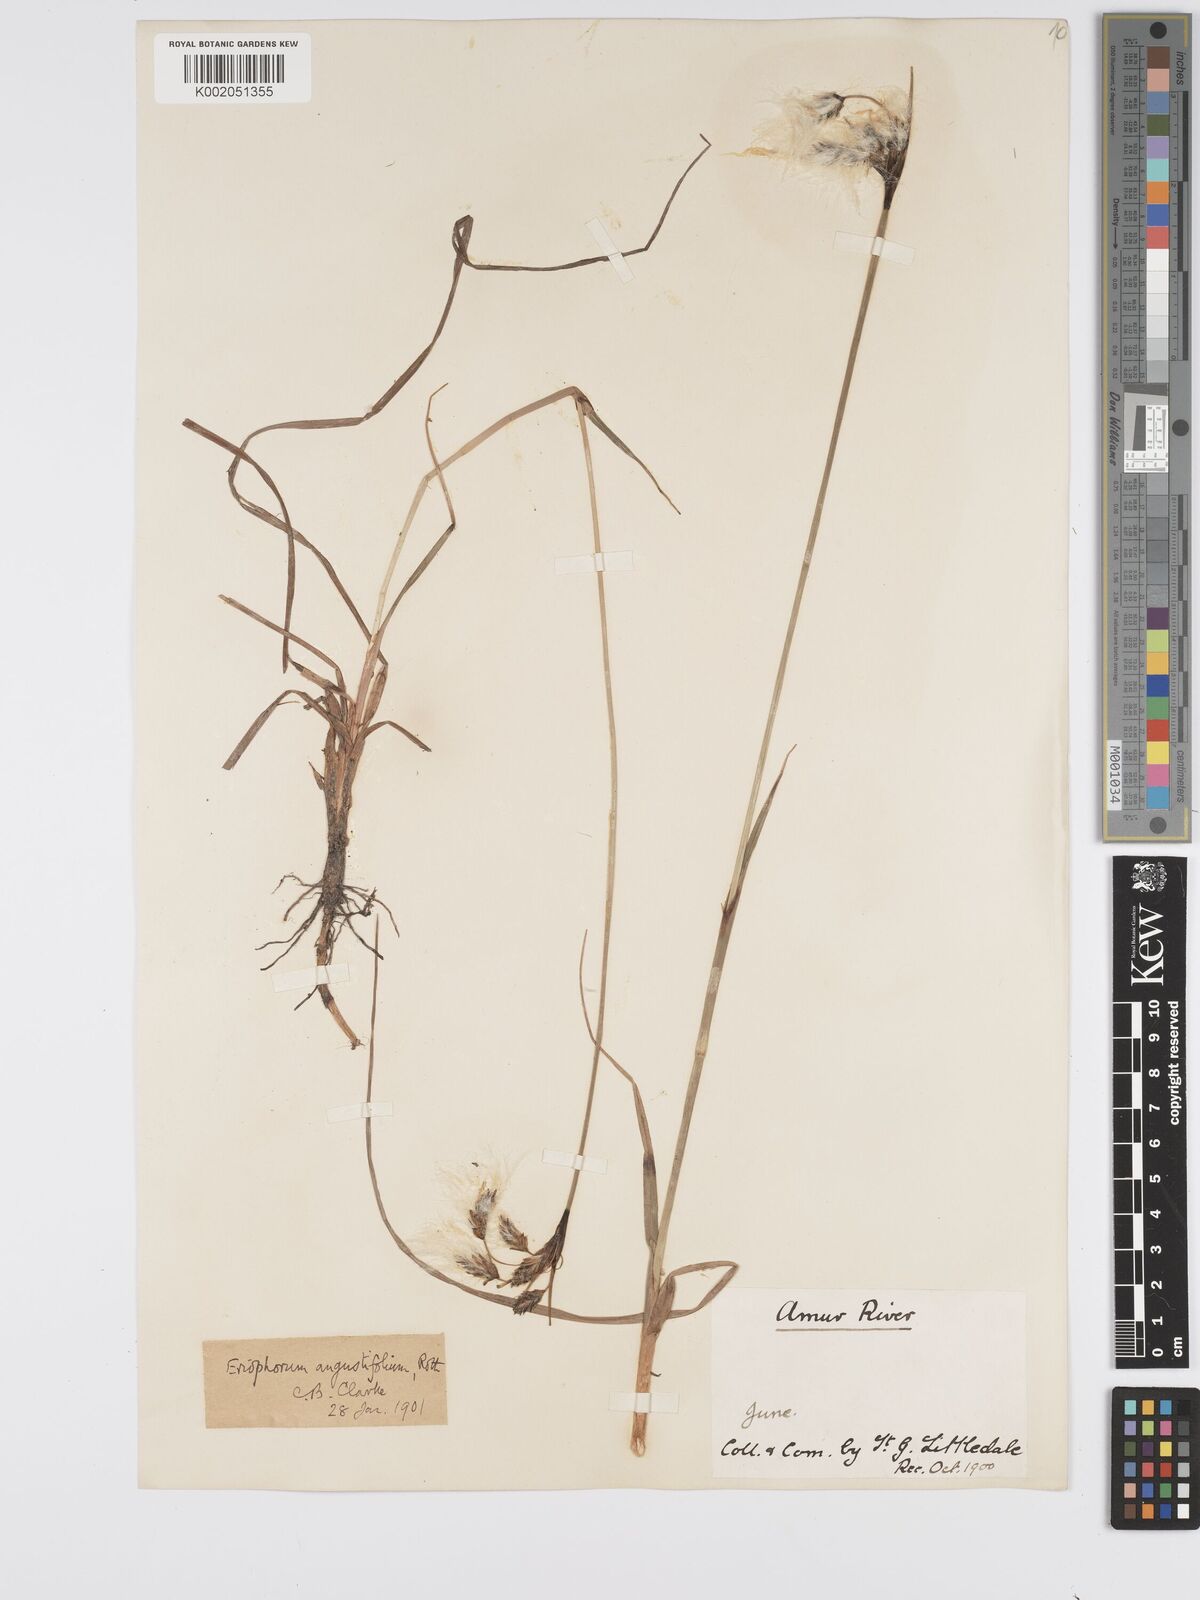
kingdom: Plantae
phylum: Tracheophyta
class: Liliopsida
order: Poales
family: Cyperaceae
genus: Eriophorum
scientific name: Eriophorum angustifolium
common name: Common cottongrass
